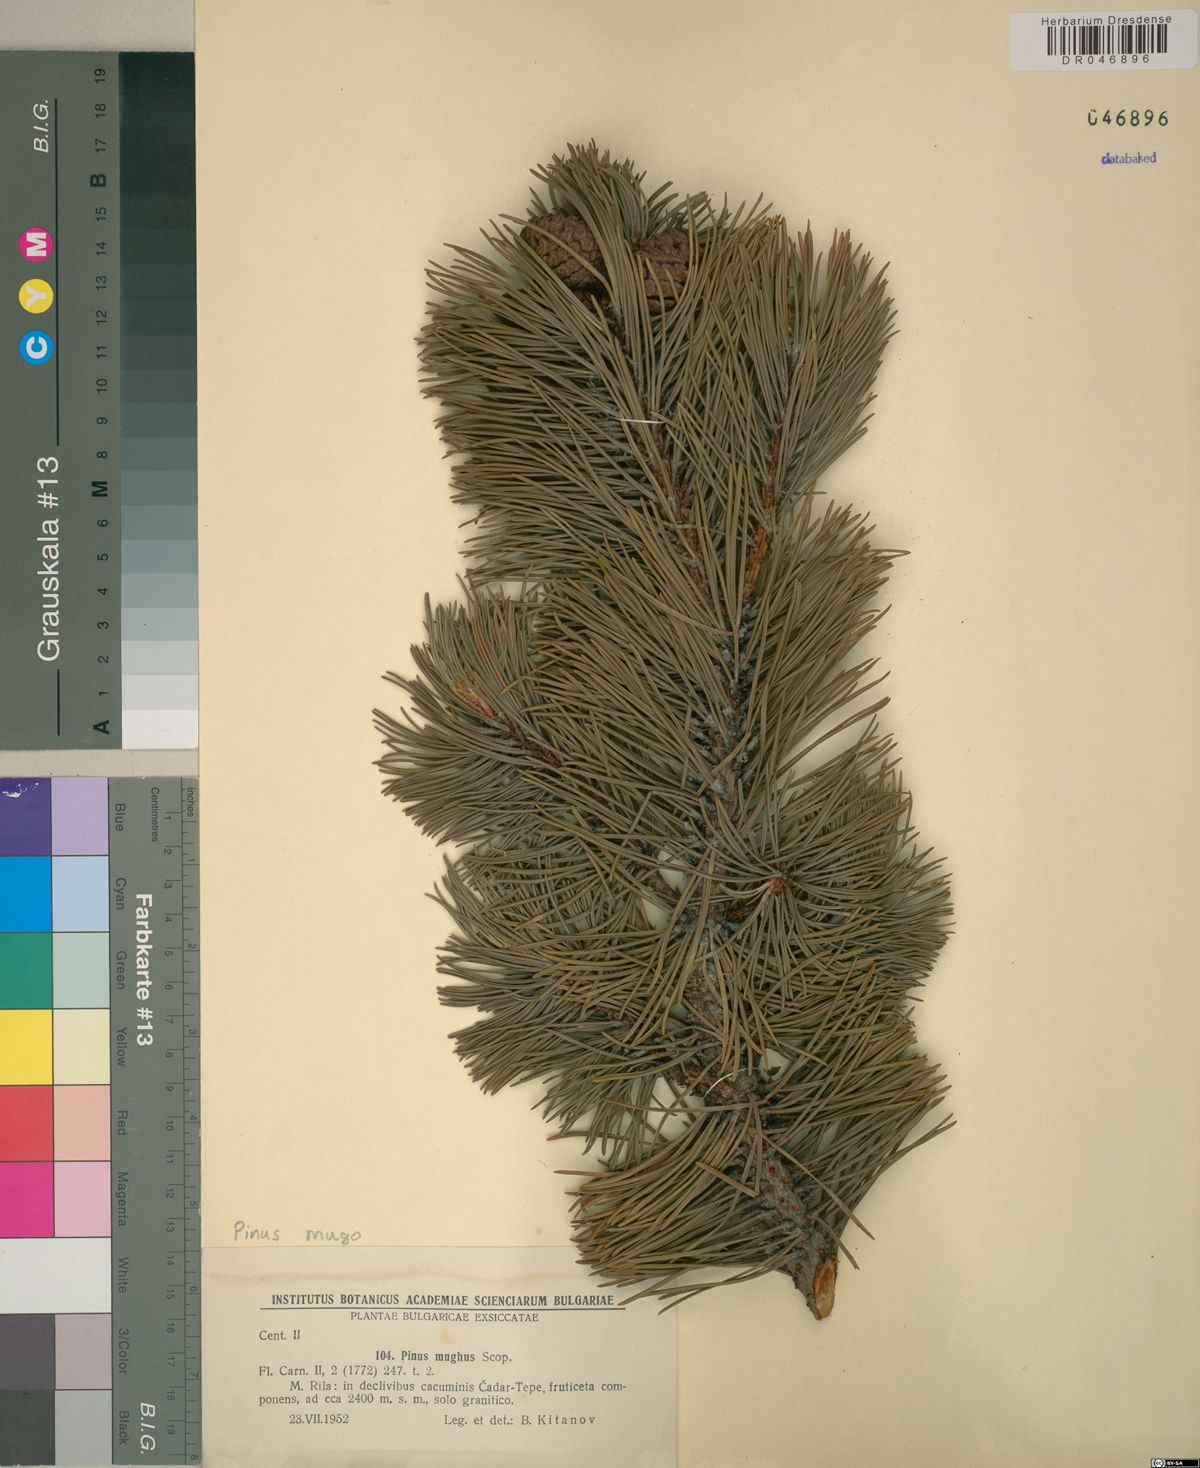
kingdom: Plantae
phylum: Tracheophyta
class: Pinopsida
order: Pinales
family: Pinaceae
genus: Pinus
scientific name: Pinus mugo
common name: Mugo pine
